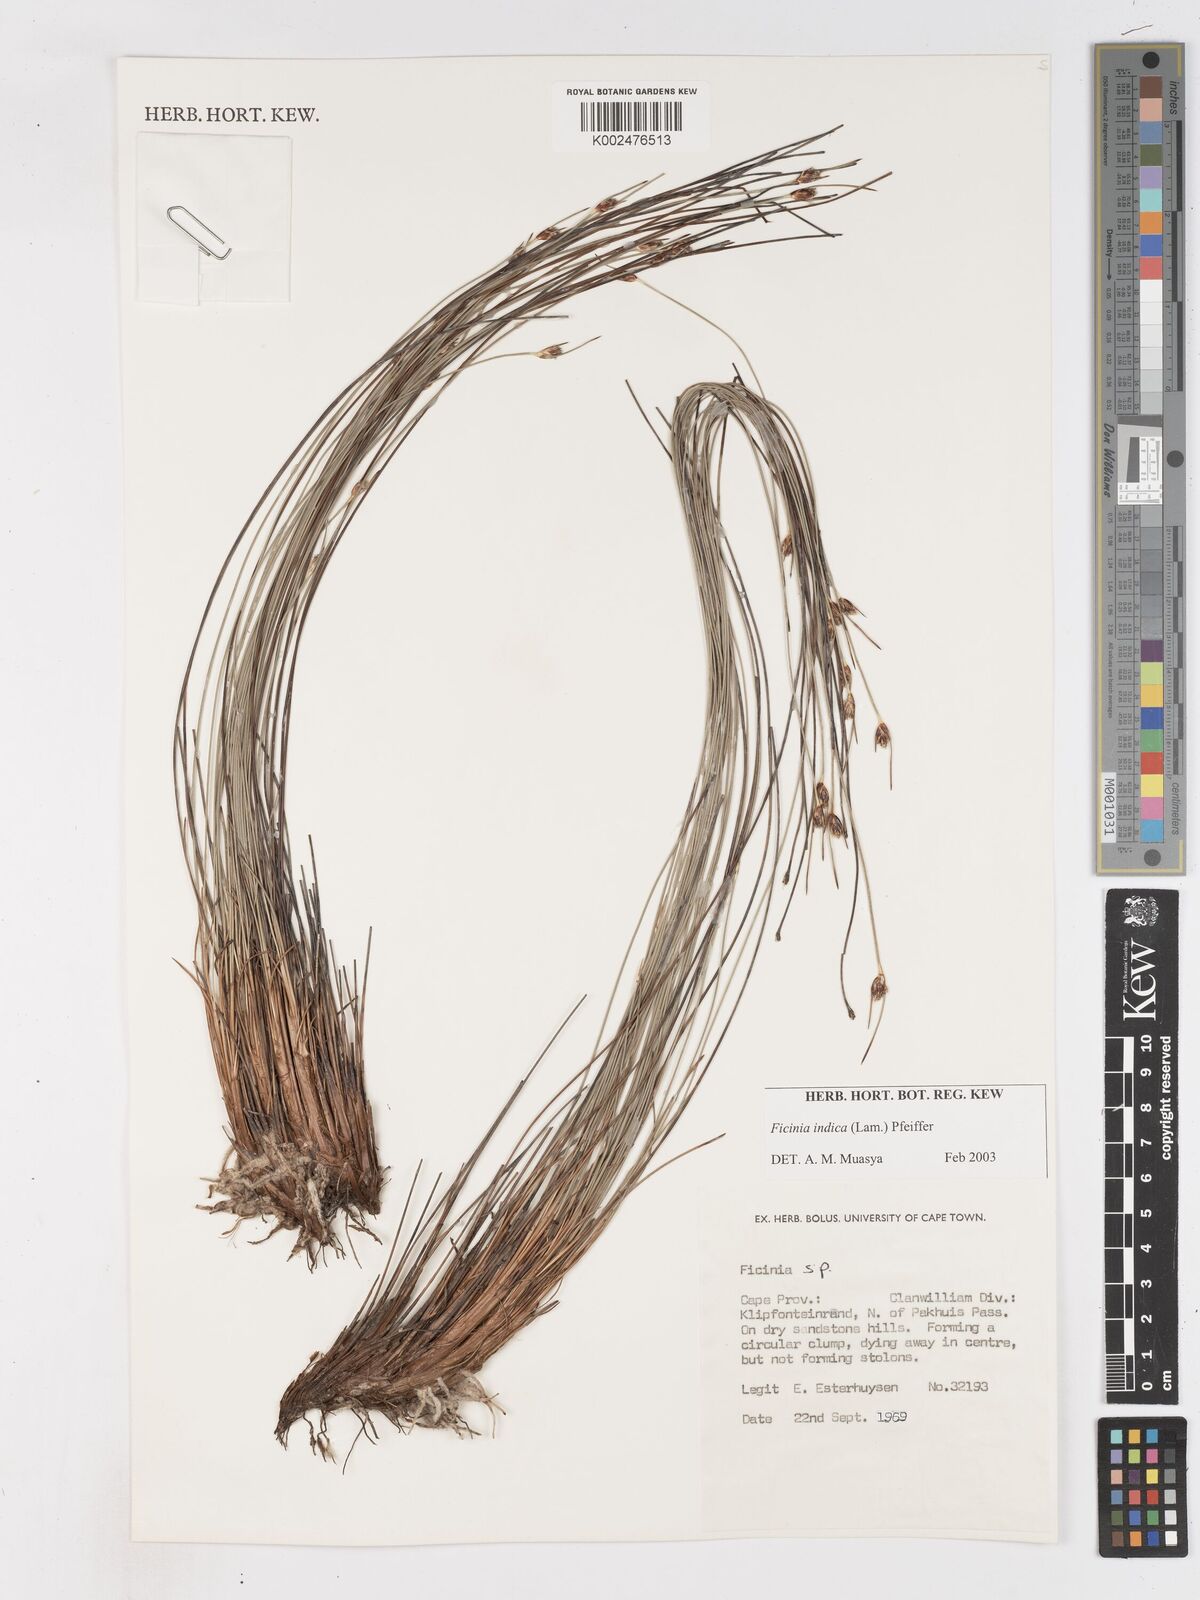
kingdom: Plantae
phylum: Tracheophyta
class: Liliopsida
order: Poales
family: Cyperaceae
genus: Ficinia
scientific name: Ficinia dunensis
